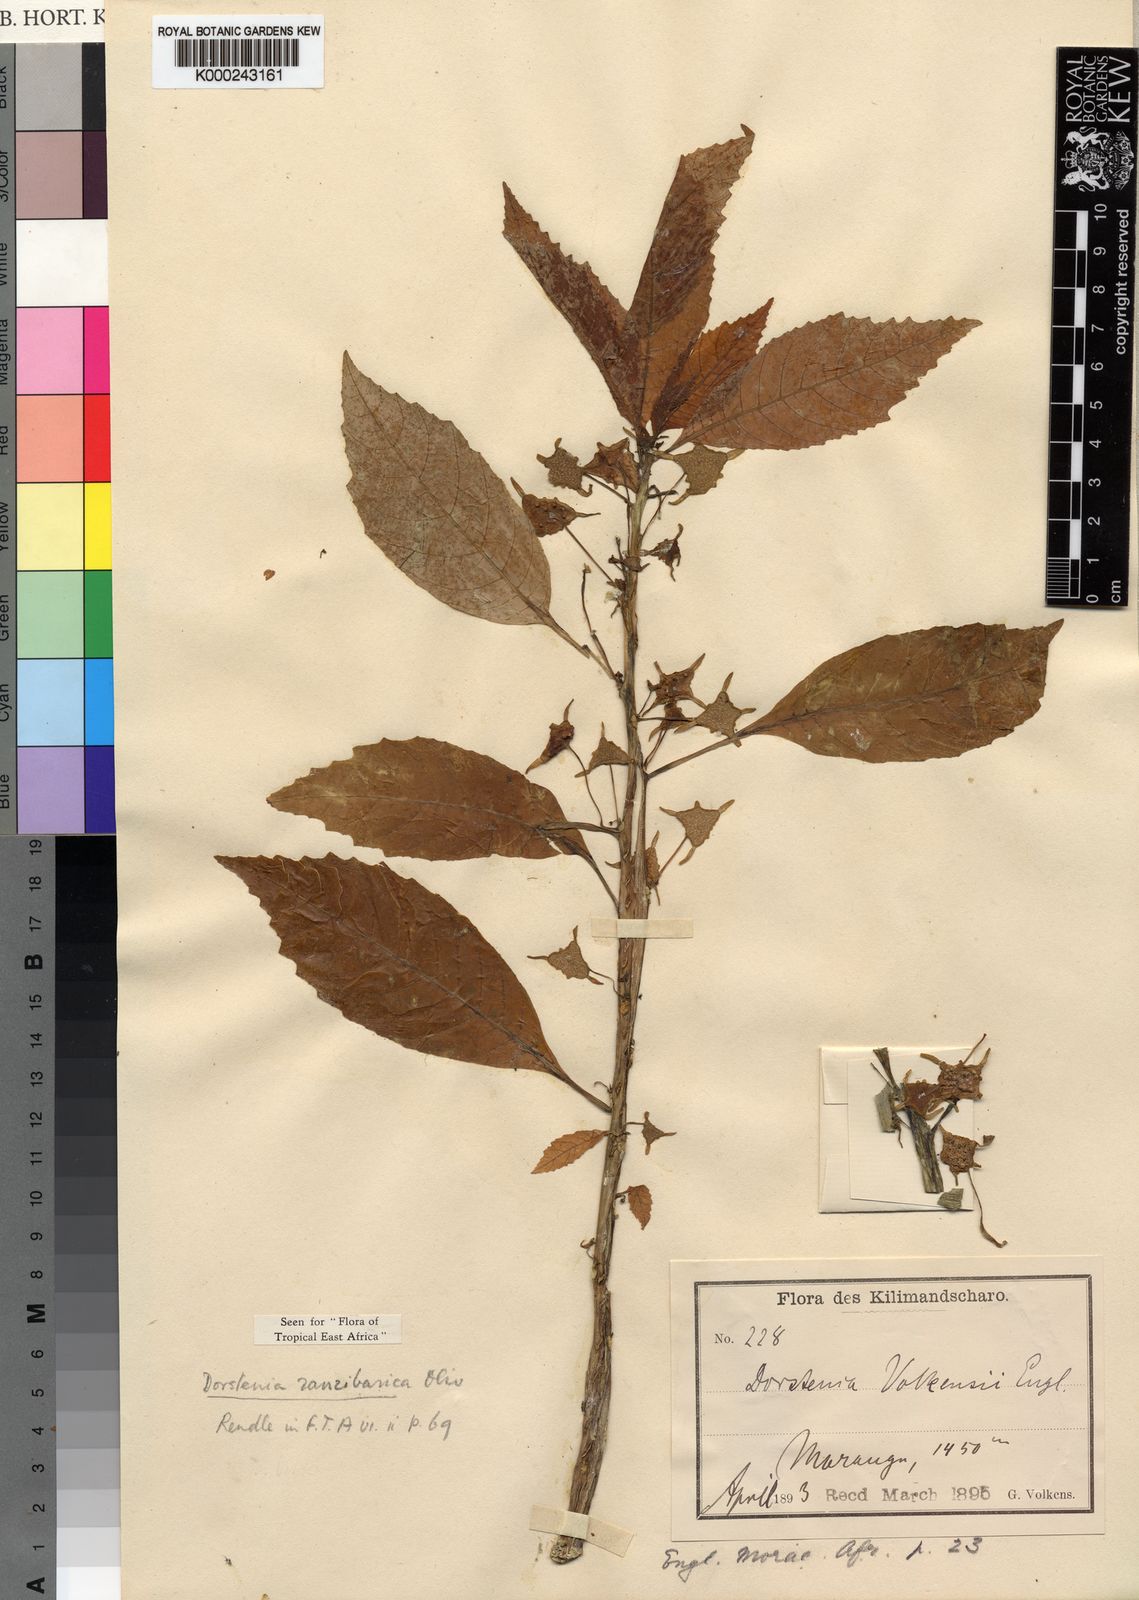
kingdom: Plantae
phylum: Tracheophyta
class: Magnoliopsida
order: Rosales
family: Moraceae
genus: Dorstenia
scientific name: Dorstenia zanzibarica
